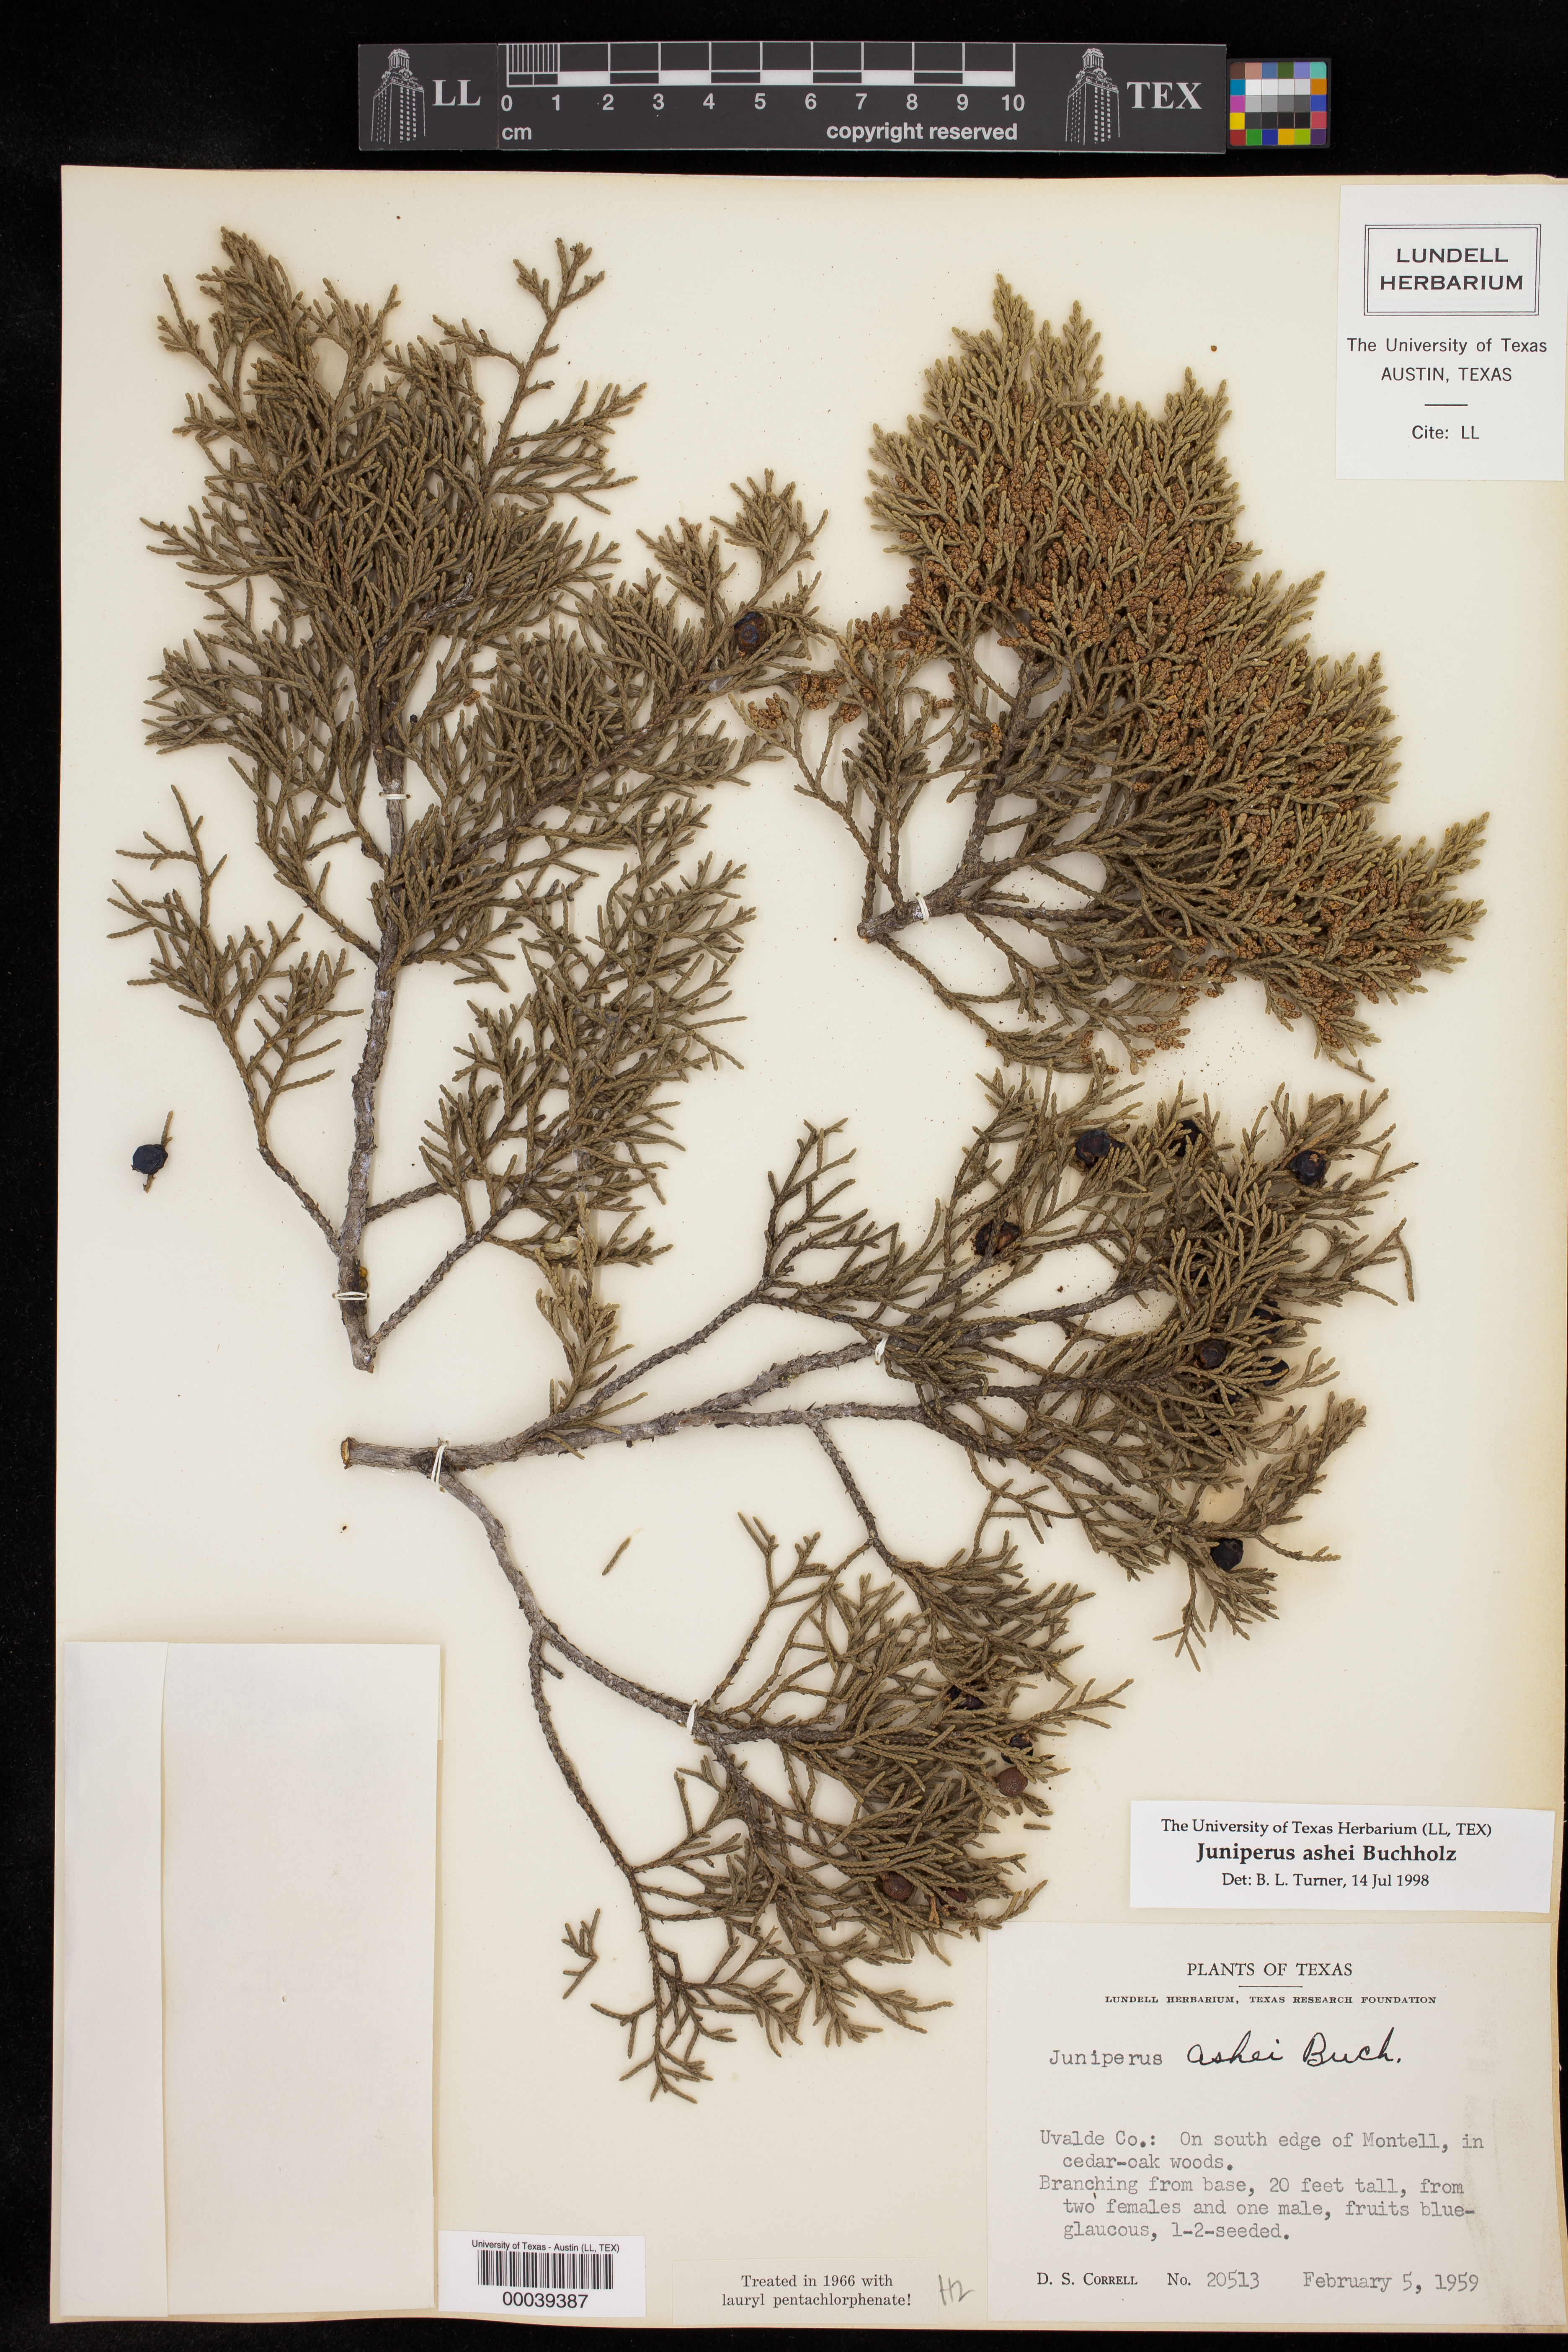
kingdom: Plantae
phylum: Tracheophyta
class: Pinopsida
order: Pinales
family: Cupressaceae
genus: Juniperus
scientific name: Juniperus ashei
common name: Mexican juniper
